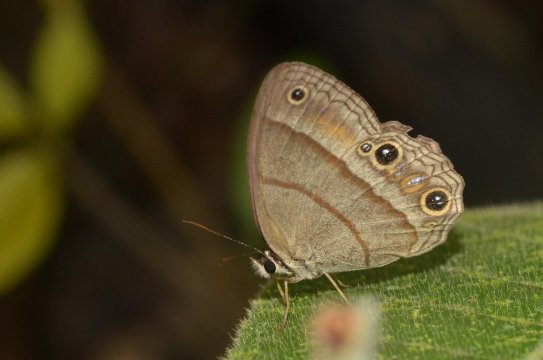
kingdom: Animalia
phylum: Arthropoda
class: Insecta
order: Lepidoptera
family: Nymphalidae
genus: Euptychia
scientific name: Euptychia Cissia pompilia
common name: Plain Satyr
